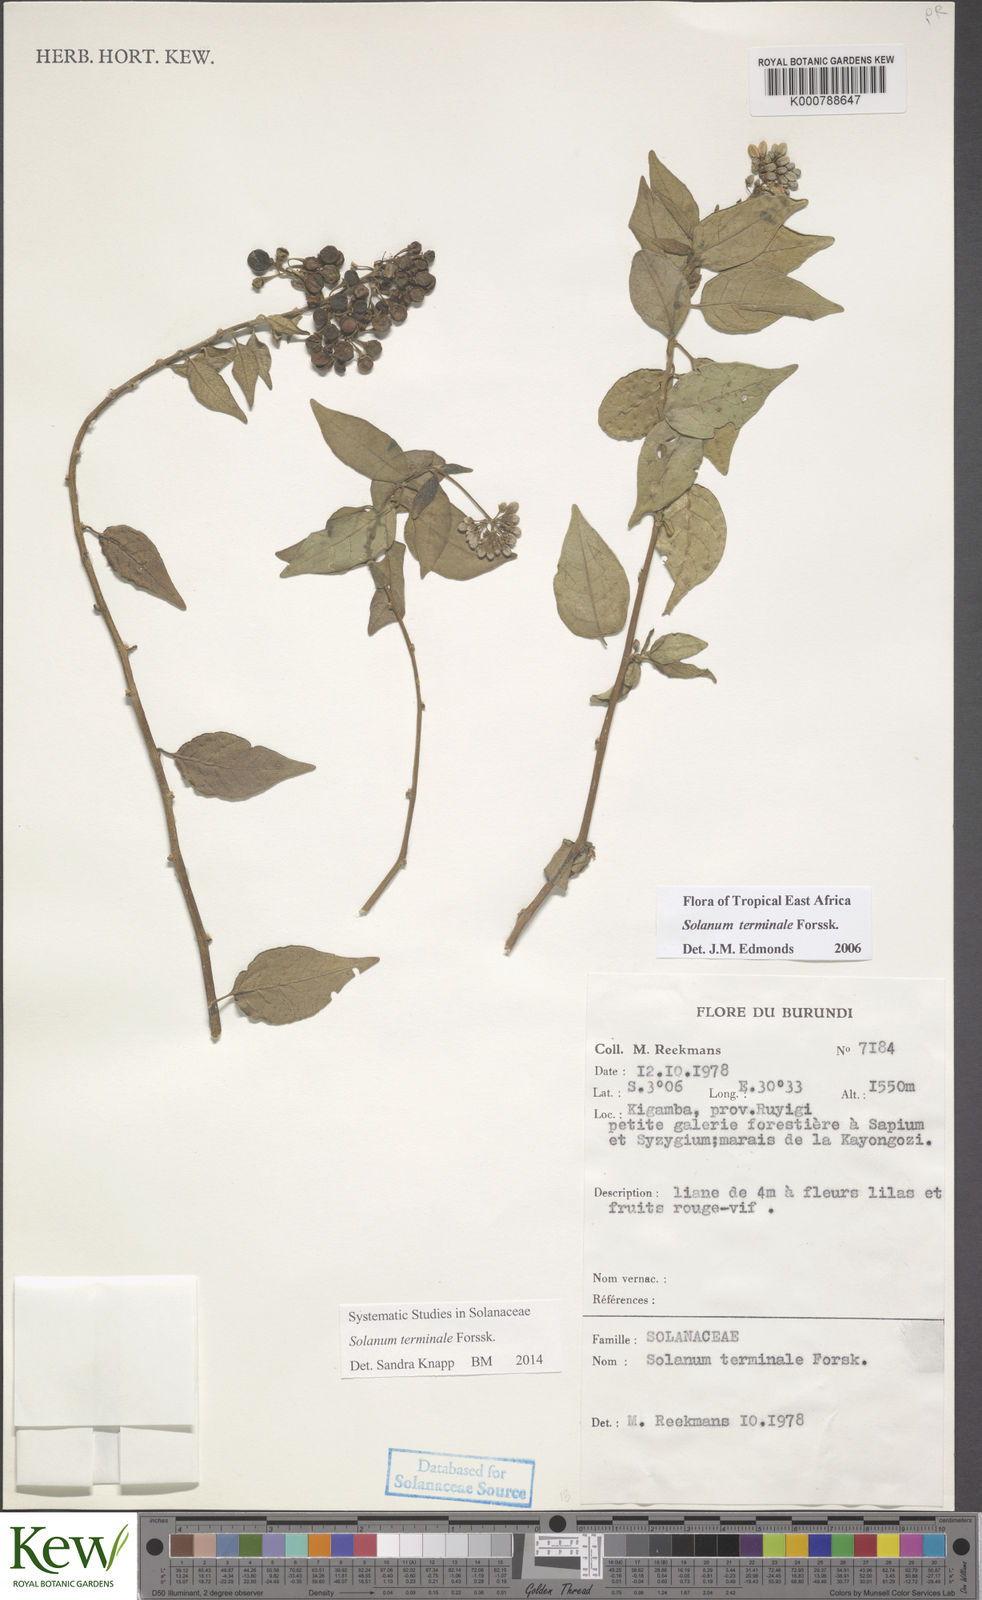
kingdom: Plantae
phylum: Tracheophyta
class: Magnoliopsida
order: Solanales
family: Solanaceae
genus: Solanum
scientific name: Solanum terminale
